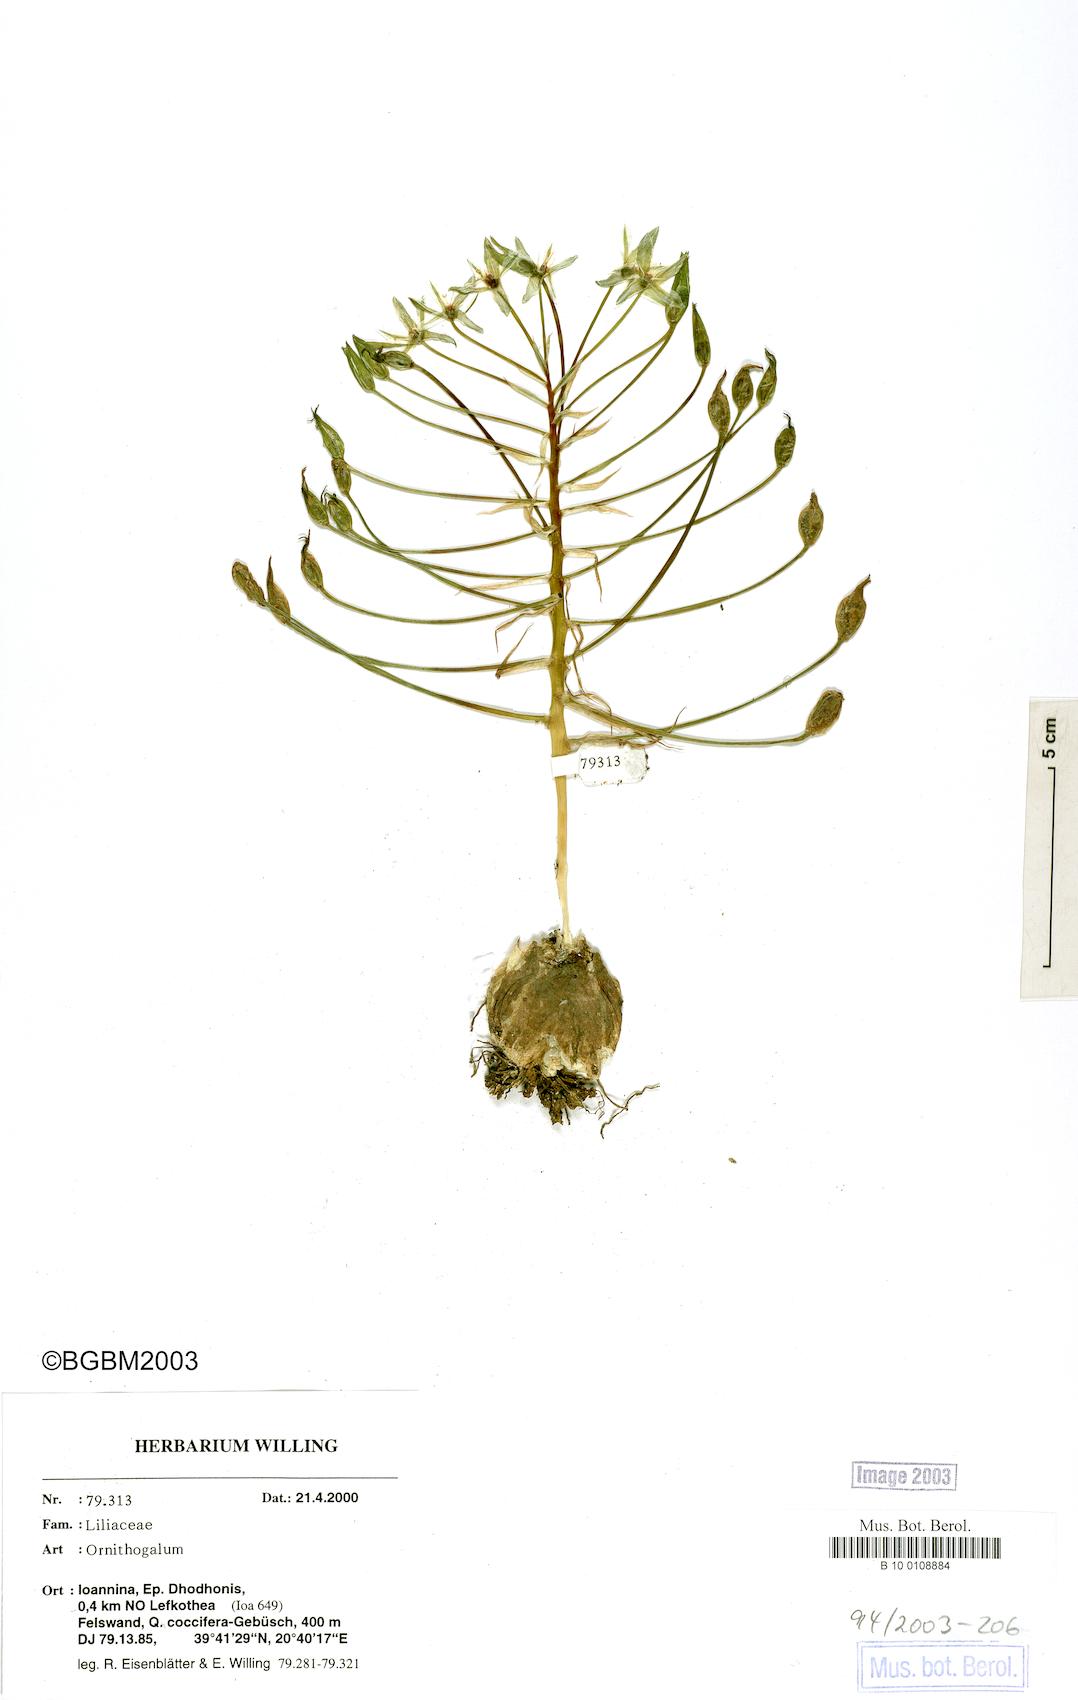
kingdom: Plantae
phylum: Tracheophyta
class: Liliopsida
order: Asparagales
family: Asparagaceae
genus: Ornithogalum
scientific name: Ornithogalum
